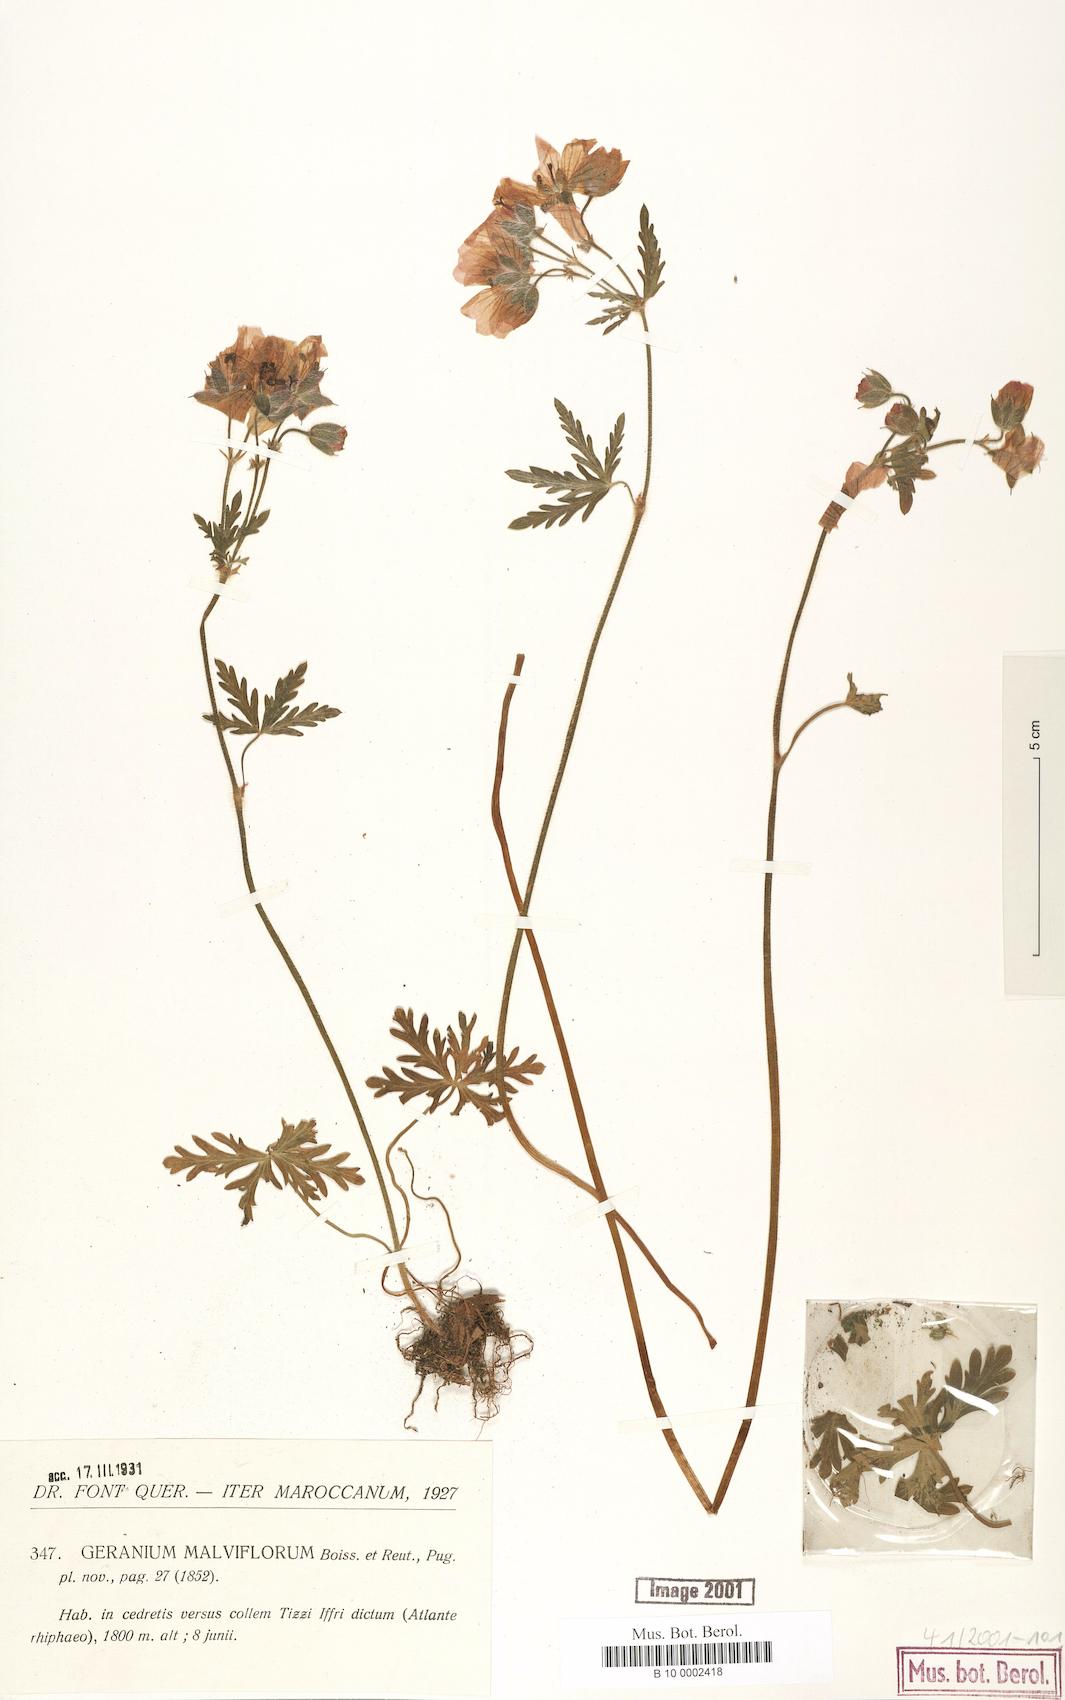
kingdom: Plantae
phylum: Tracheophyta
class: Magnoliopsida
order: Geraniales
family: Geraniaceae
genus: Geranium
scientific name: Geranium malviflorum
